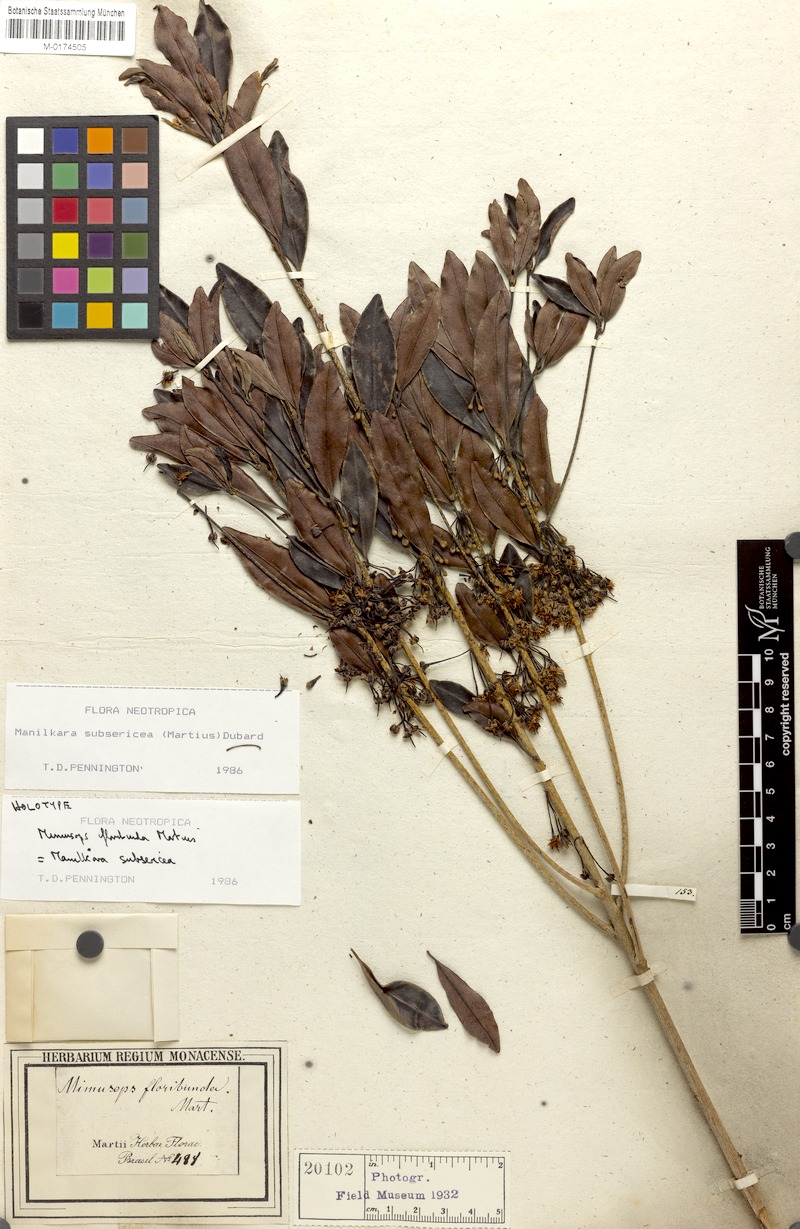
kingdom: Plantae
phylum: Tracheophyta
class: Magnoliopsida
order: Ericales
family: Sapotaceae
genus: Manilkara
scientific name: Manilkara subsericea
